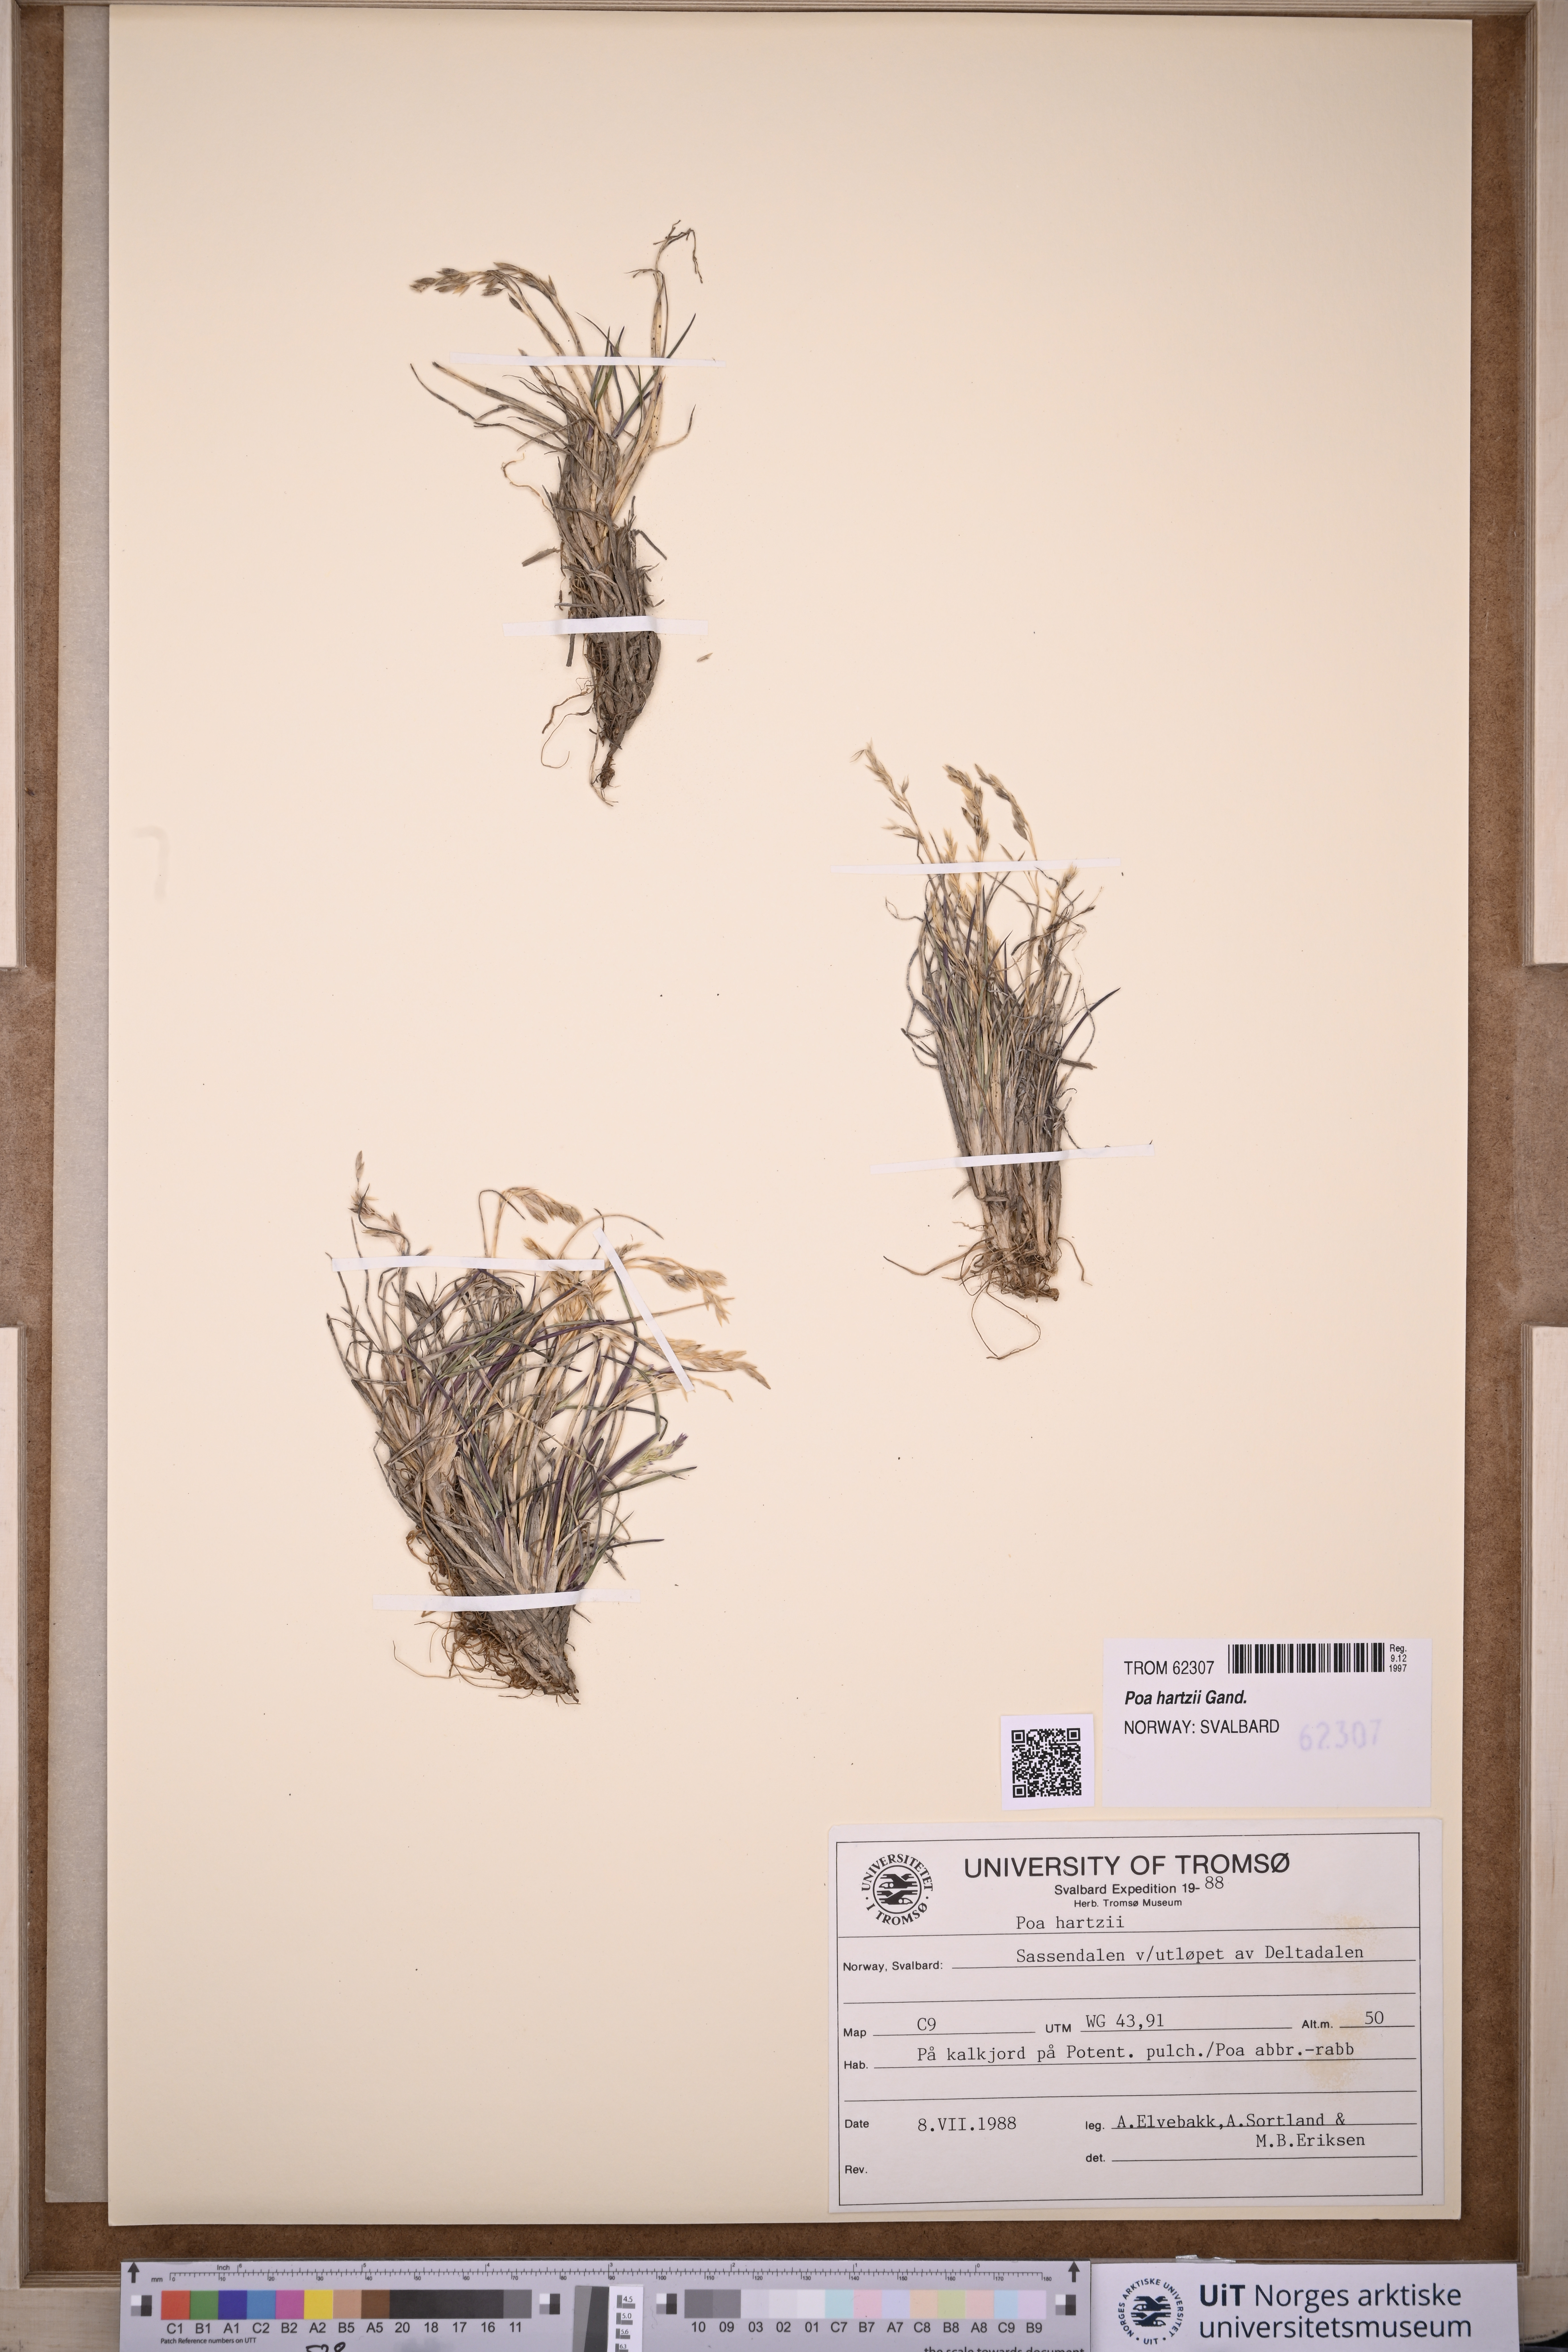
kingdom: Plantae
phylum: Tracheophyta
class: Liliopsida
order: Poales
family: Poaceae
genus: Poa
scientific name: Poa hartzii
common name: Hartz's bluegrass
